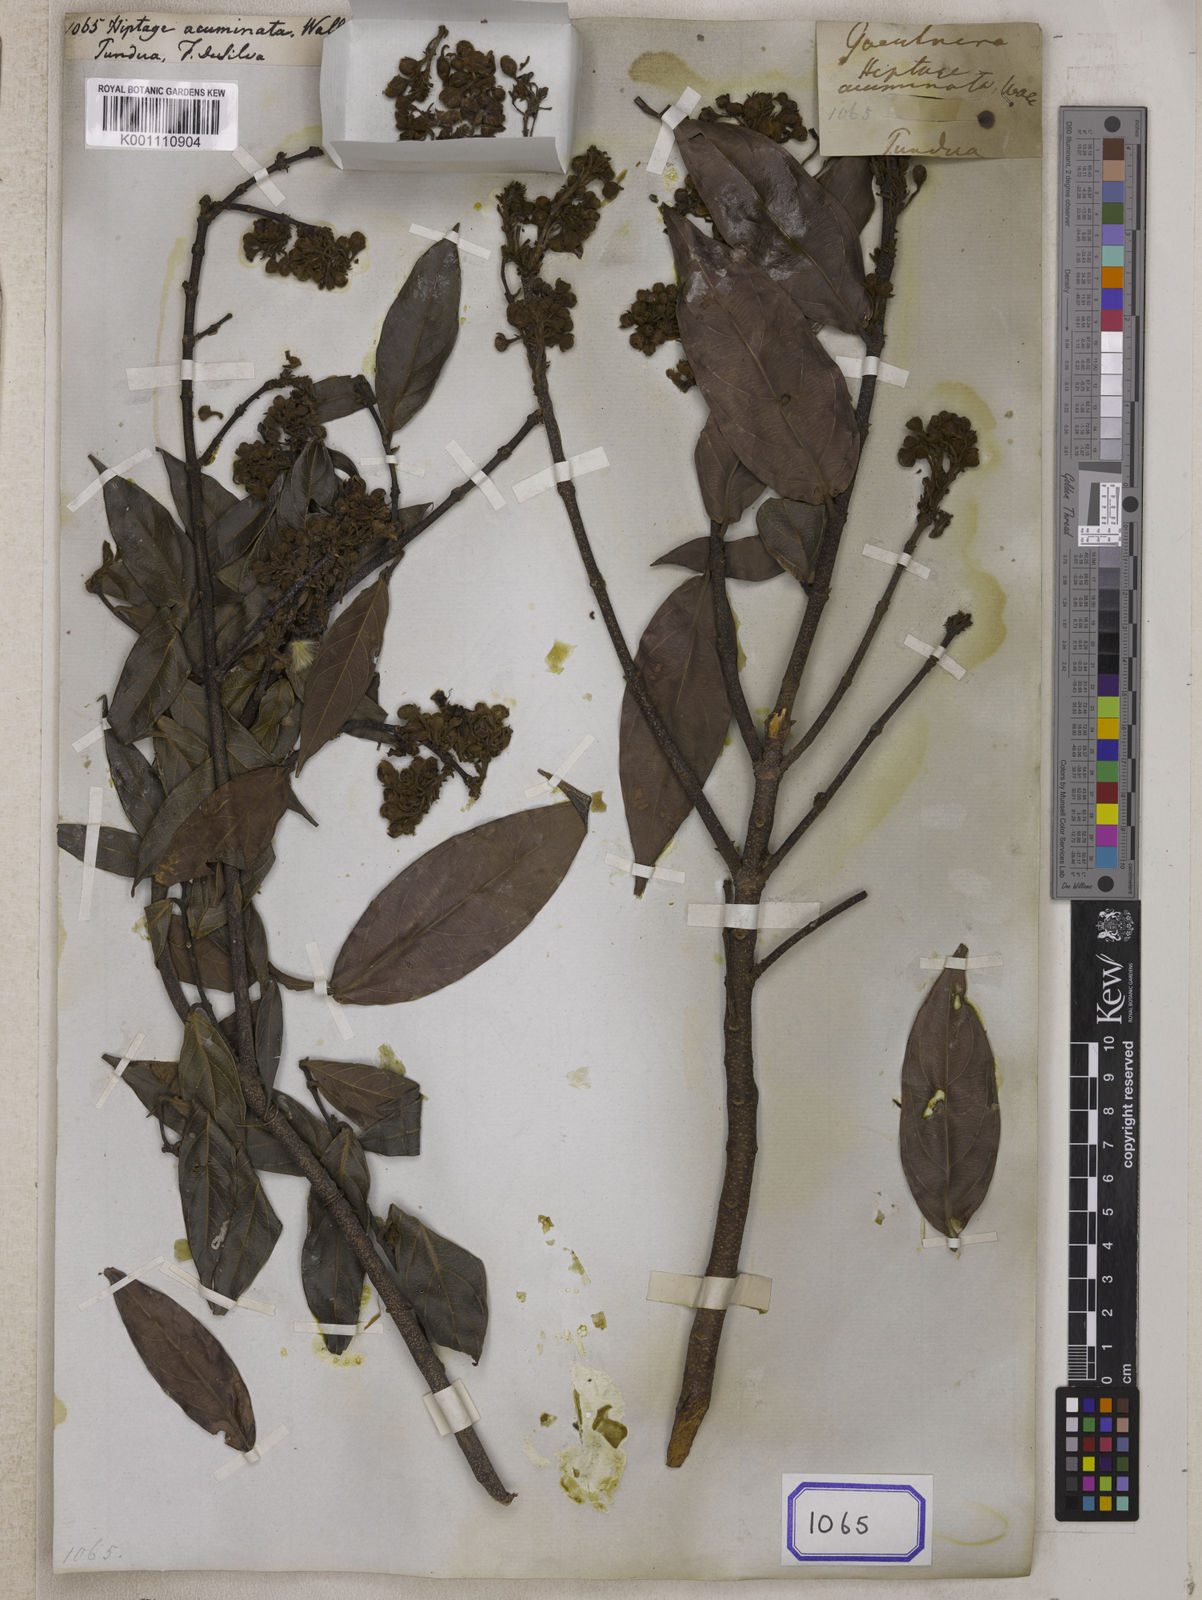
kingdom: Plantae
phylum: Tracheophyta
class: Magnoliopsida
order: Malpighiales
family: Malpighiaceae
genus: Hiptage
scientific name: Hiptage acuminata
